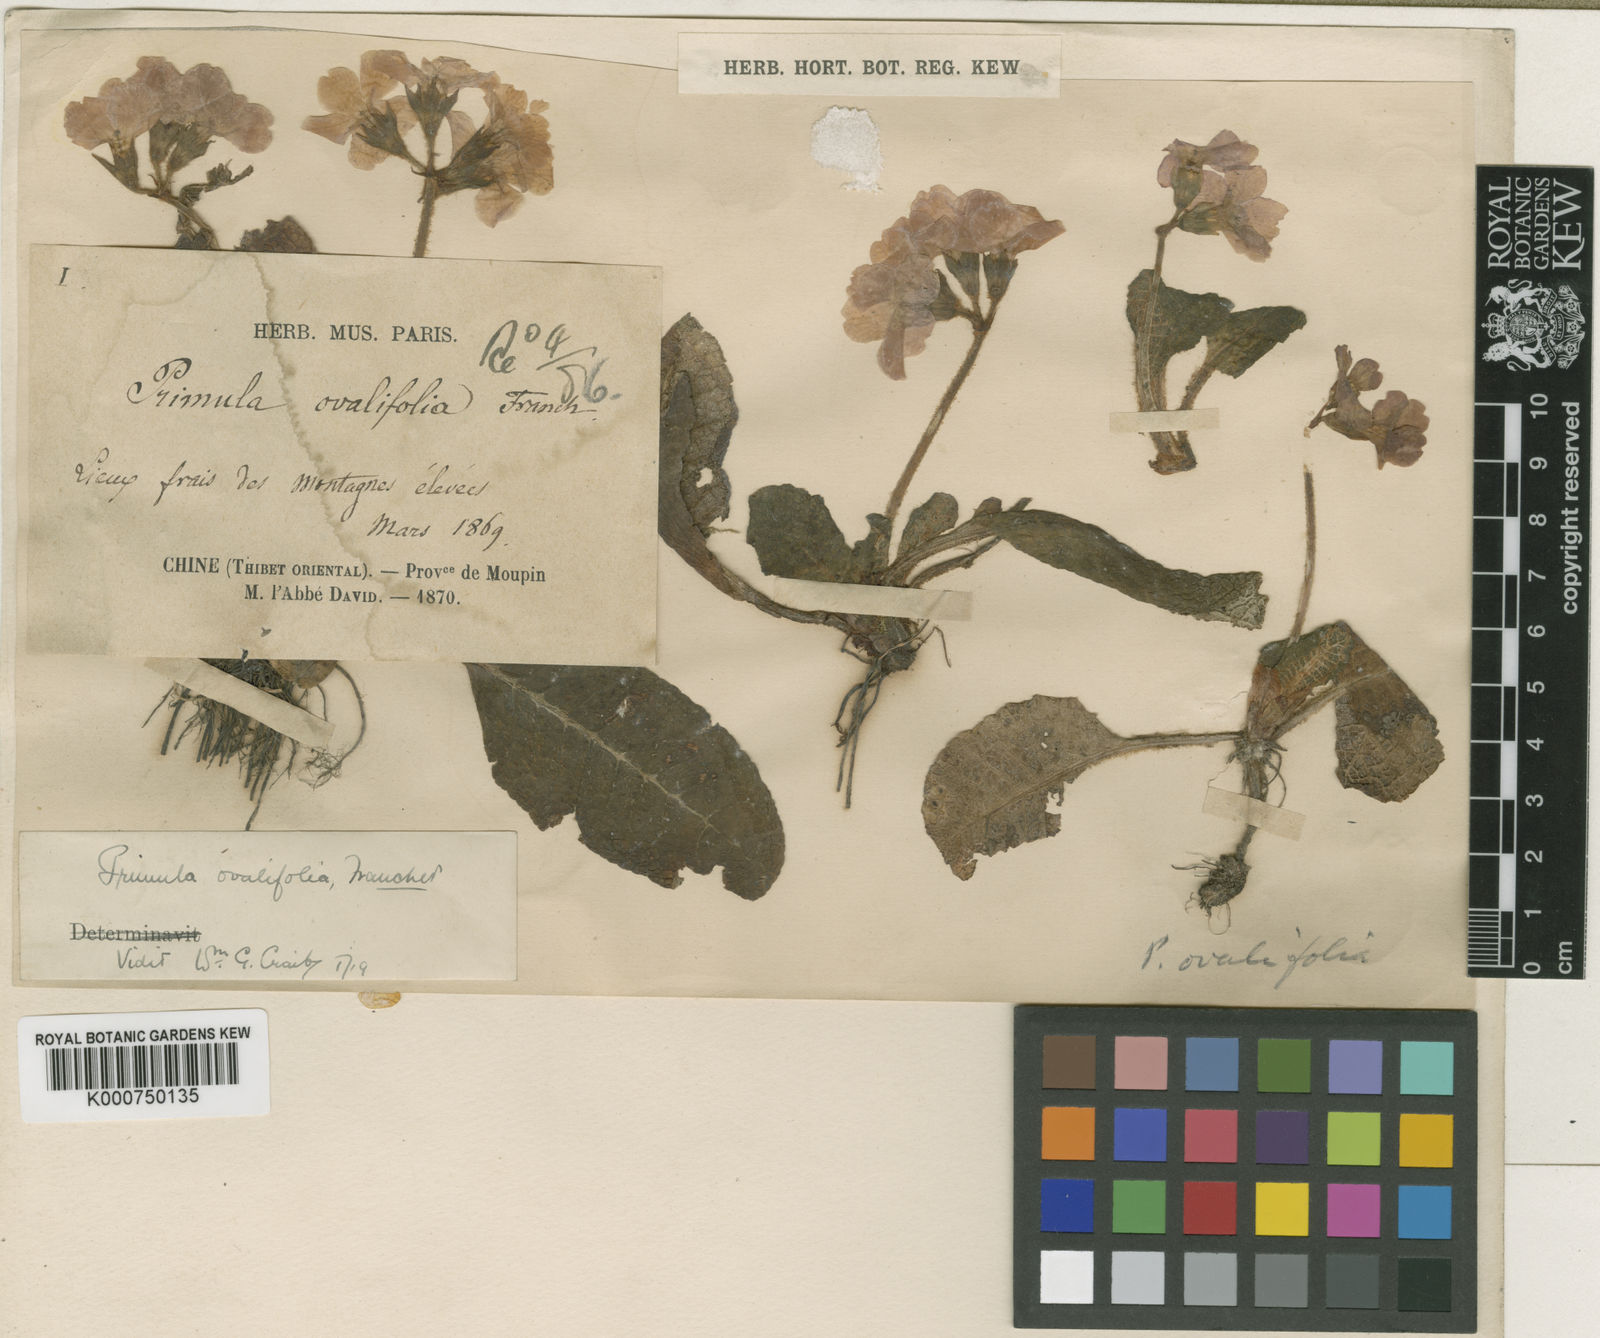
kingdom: Plantae
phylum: Tracheophyta
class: Magnoliopsida
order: Ericales
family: Primulaceae
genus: Primula
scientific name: Primula ovalifolia
